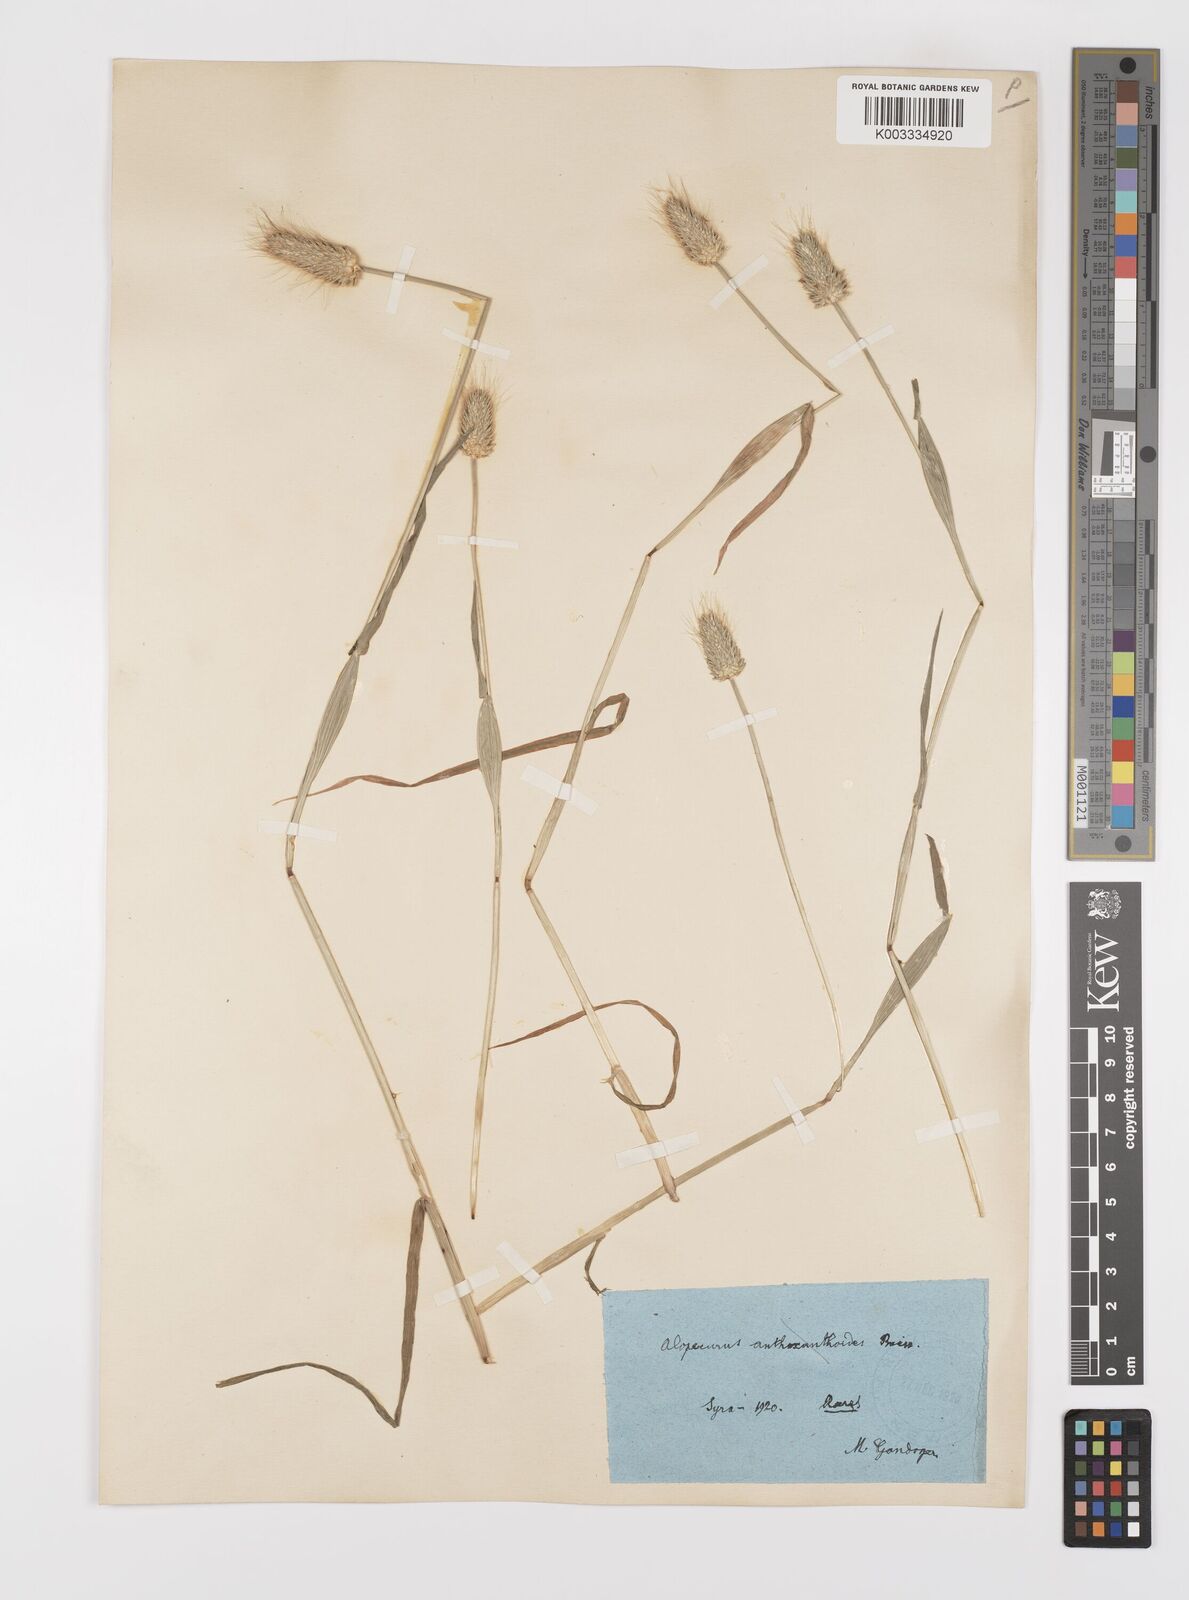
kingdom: Plantae
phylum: Tracheophyta
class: Liliopsida
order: Poales
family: Poaceae
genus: Alopecurus
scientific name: Alopecurus rendlei
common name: Rendle's meadow foxtail
